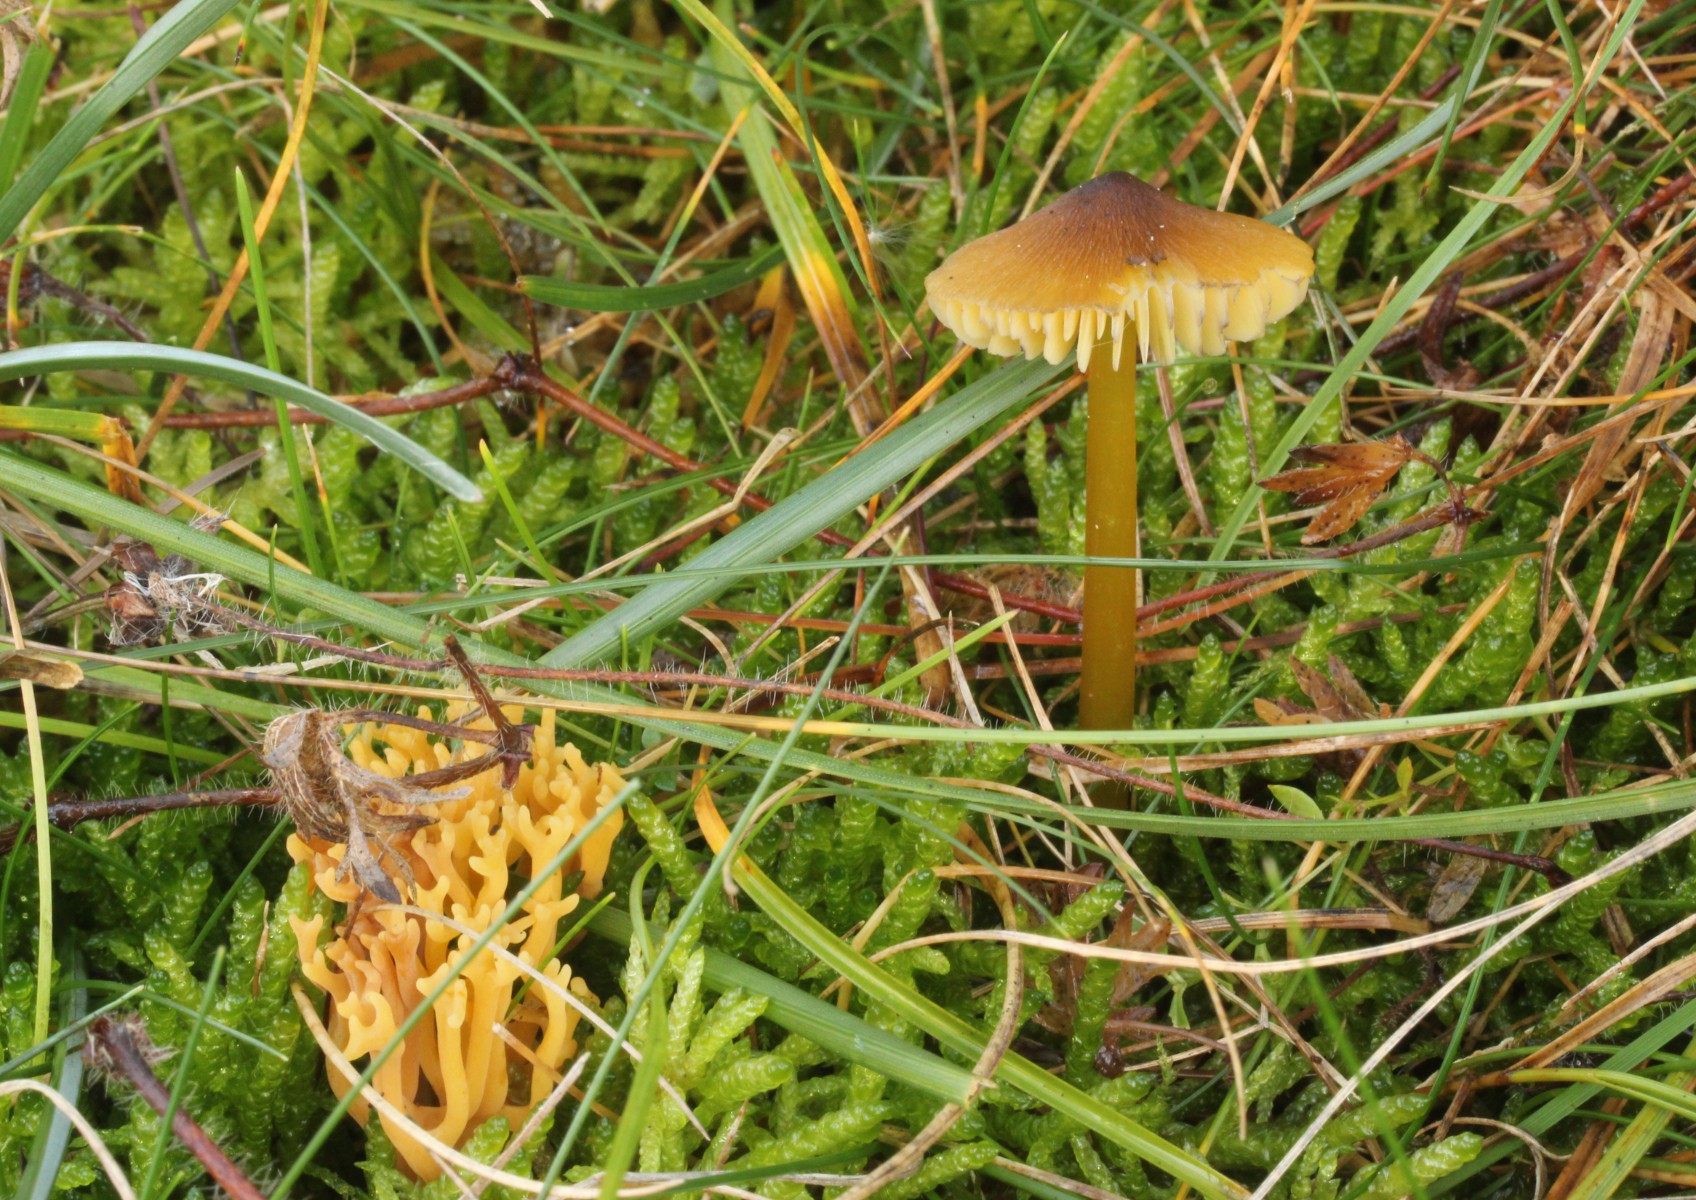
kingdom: Fungi
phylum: Basidiomycota
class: Agaricomycetes
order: Agaricales
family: Clavariaceae
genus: Clavulinopsis
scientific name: Clavulinopsis corniculata
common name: eng-køllesvamp
